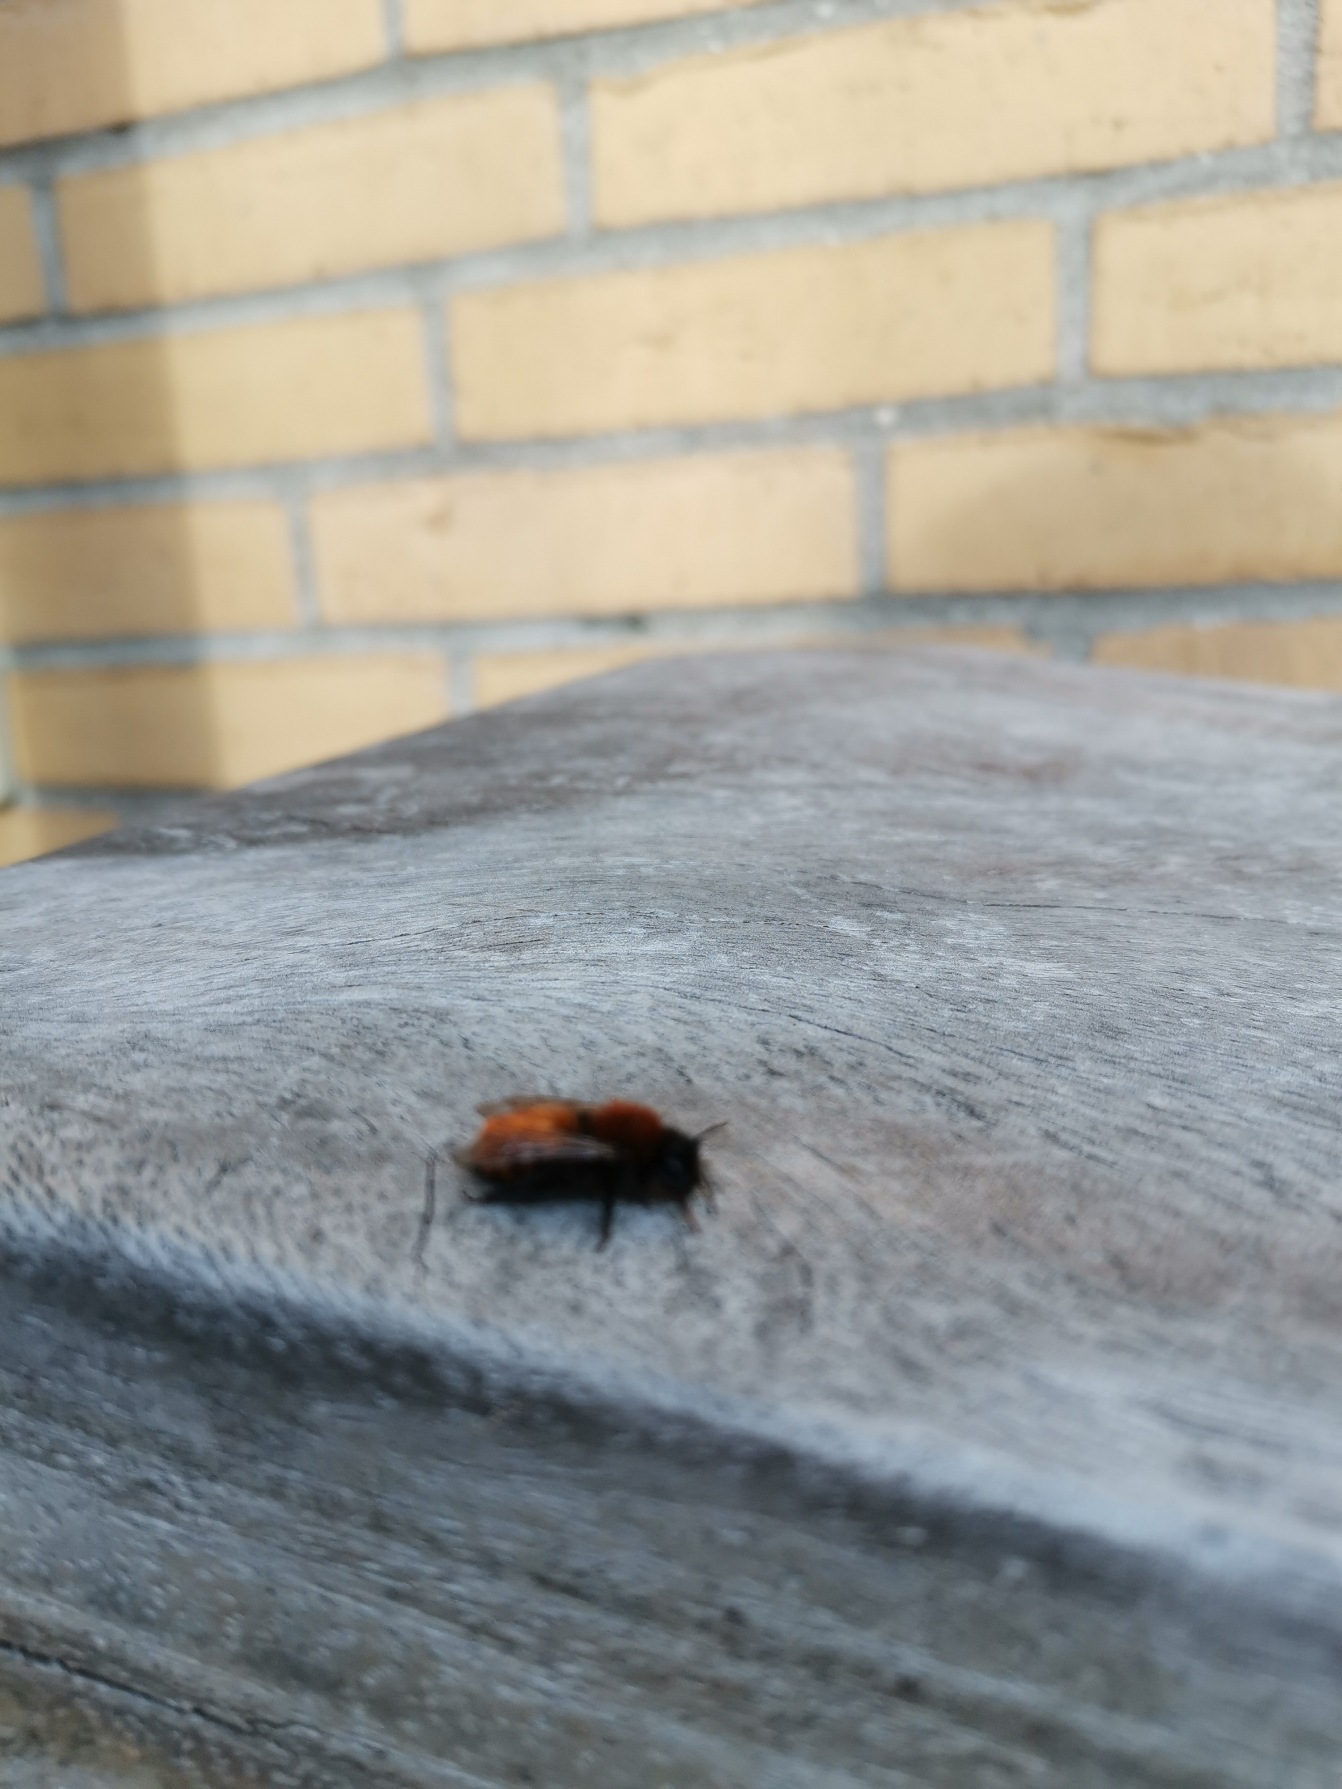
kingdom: Animalia
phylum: Arthropoda
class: Insecta
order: Hymenoptera
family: Andrenidae
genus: Andrena
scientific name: Andrena fulva
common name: Rødpelset jordbi
